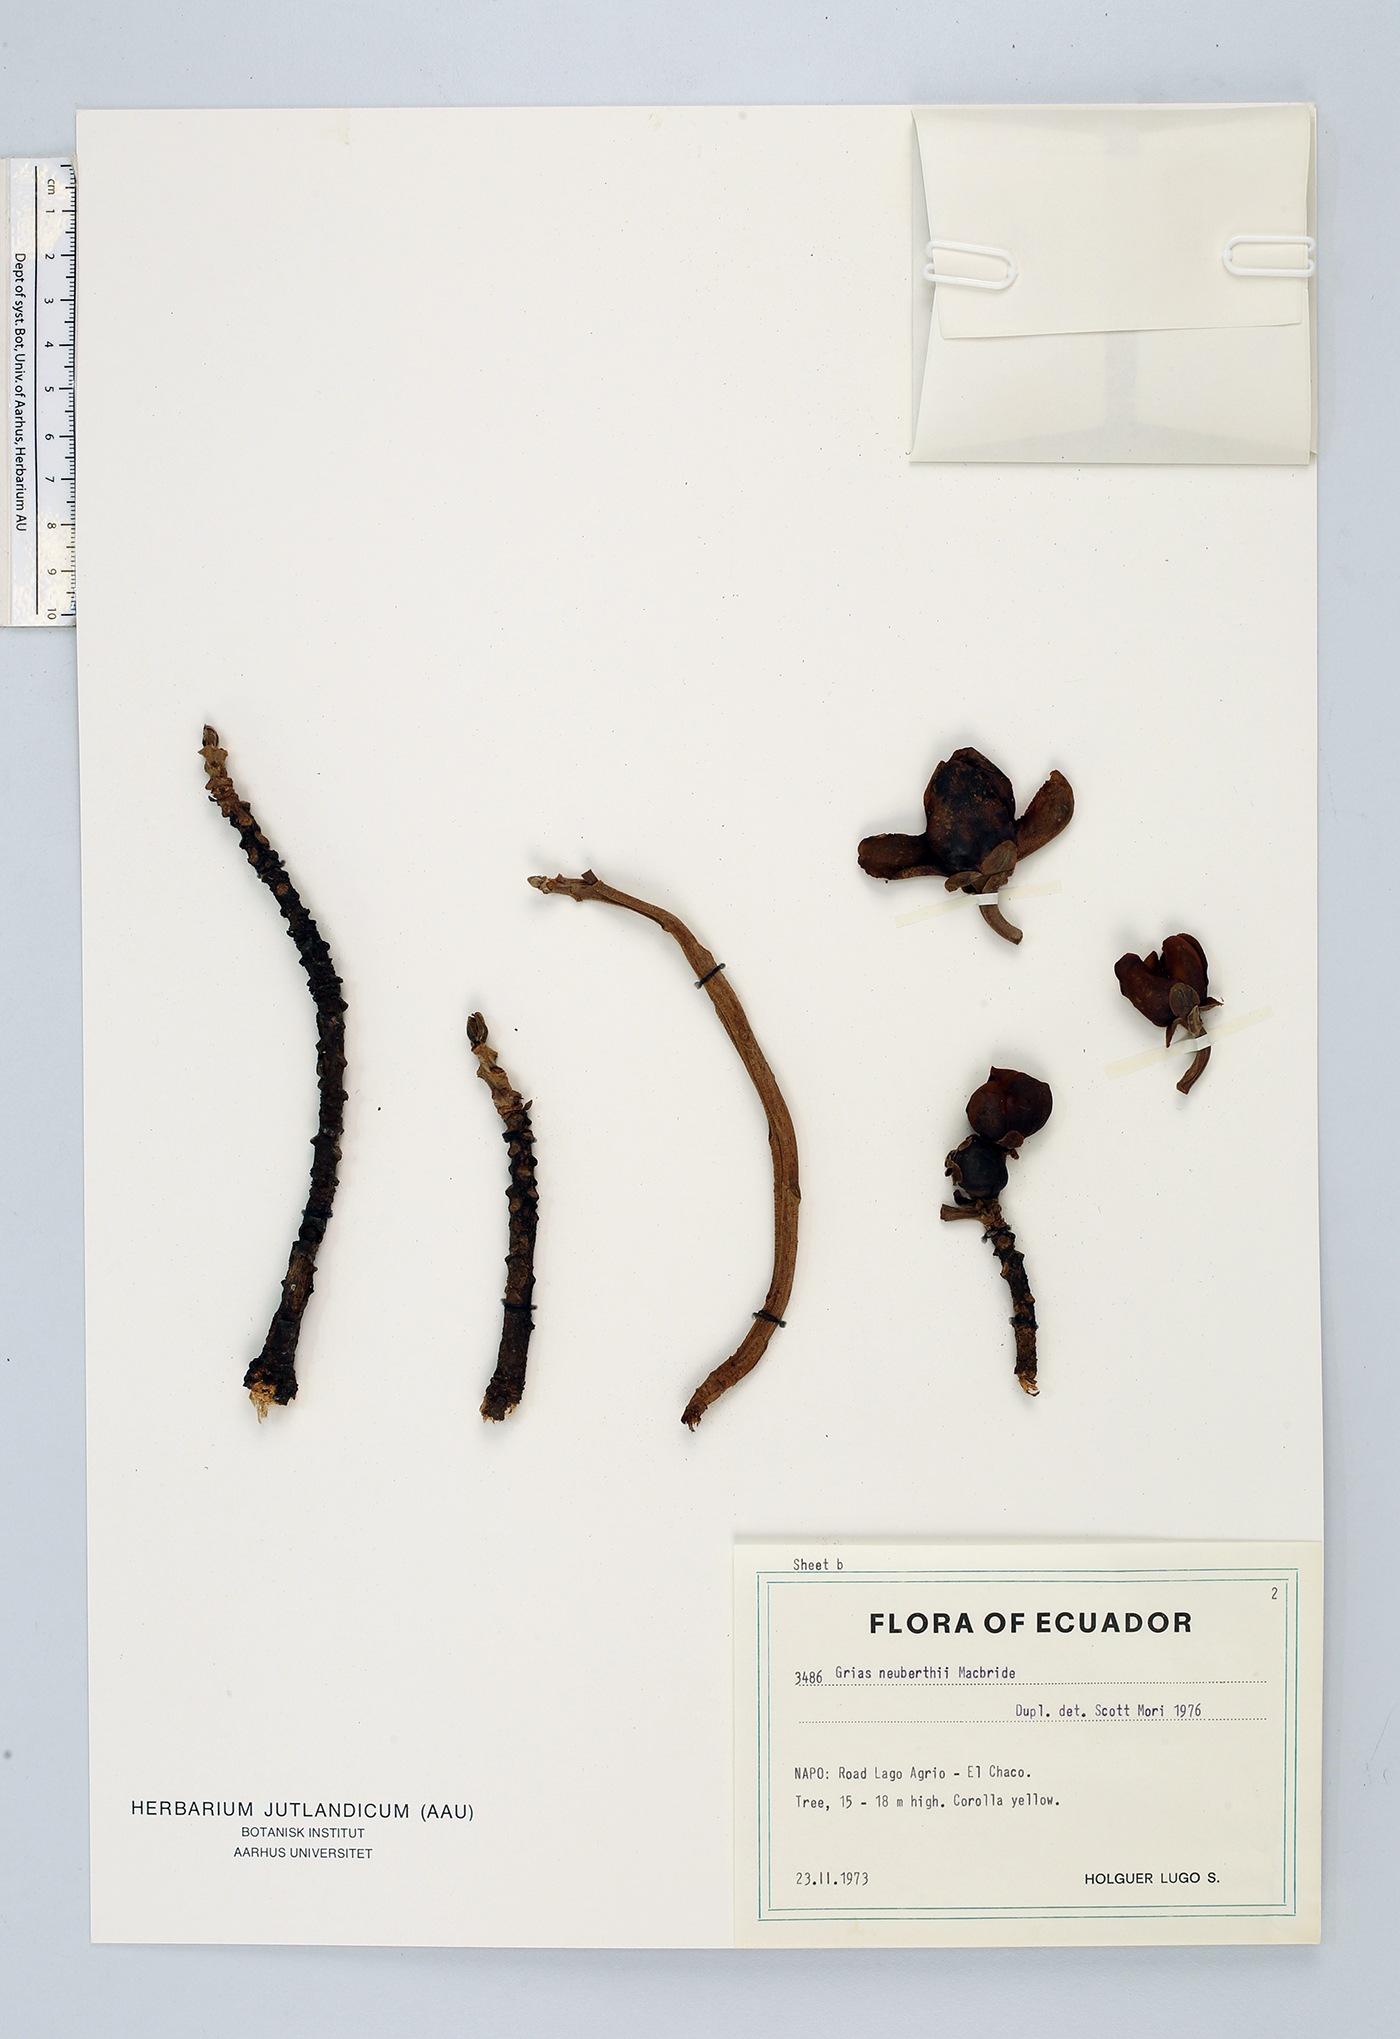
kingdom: Plantae
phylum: Tracheophyta
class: Magnoliopsida
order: Ericales
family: Lecythidaceae
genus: Grias
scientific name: Grias neuberthii
